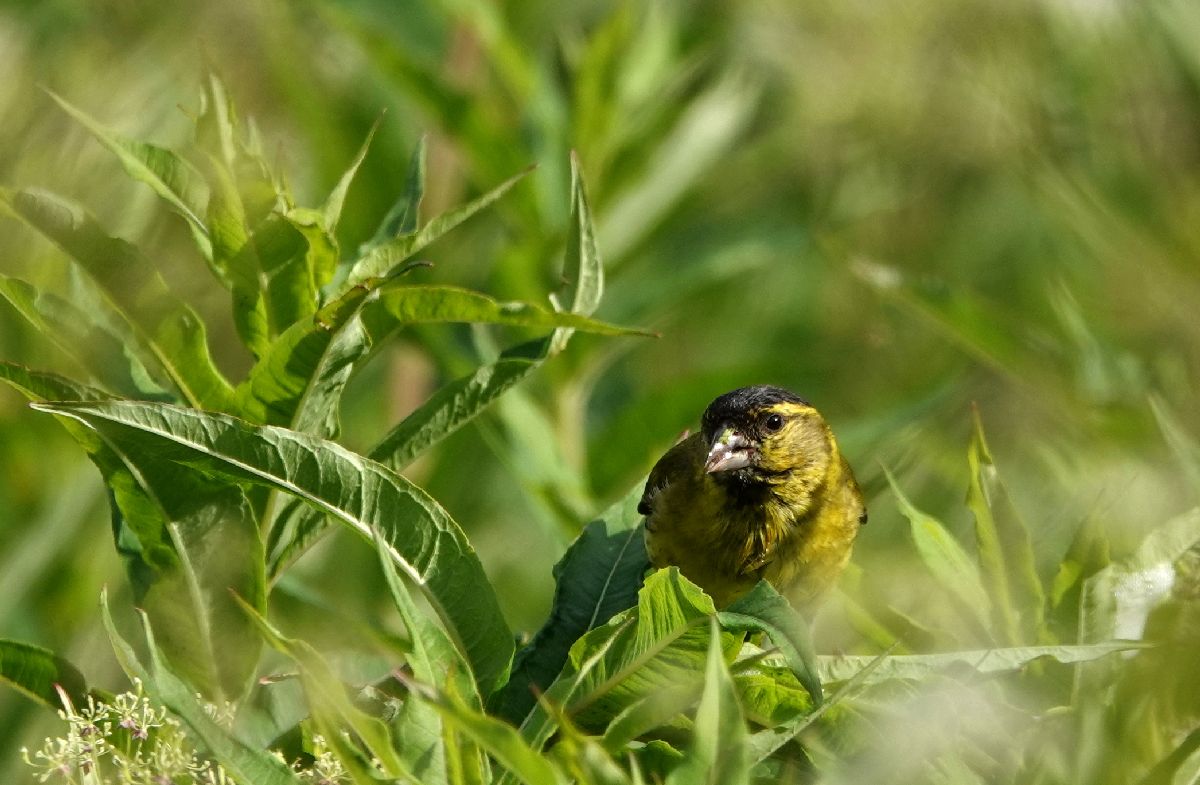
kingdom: Animalia
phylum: Chordata
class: Aves
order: Passeriformes
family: Fringillidae
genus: Spinus
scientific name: Spinus spinus
